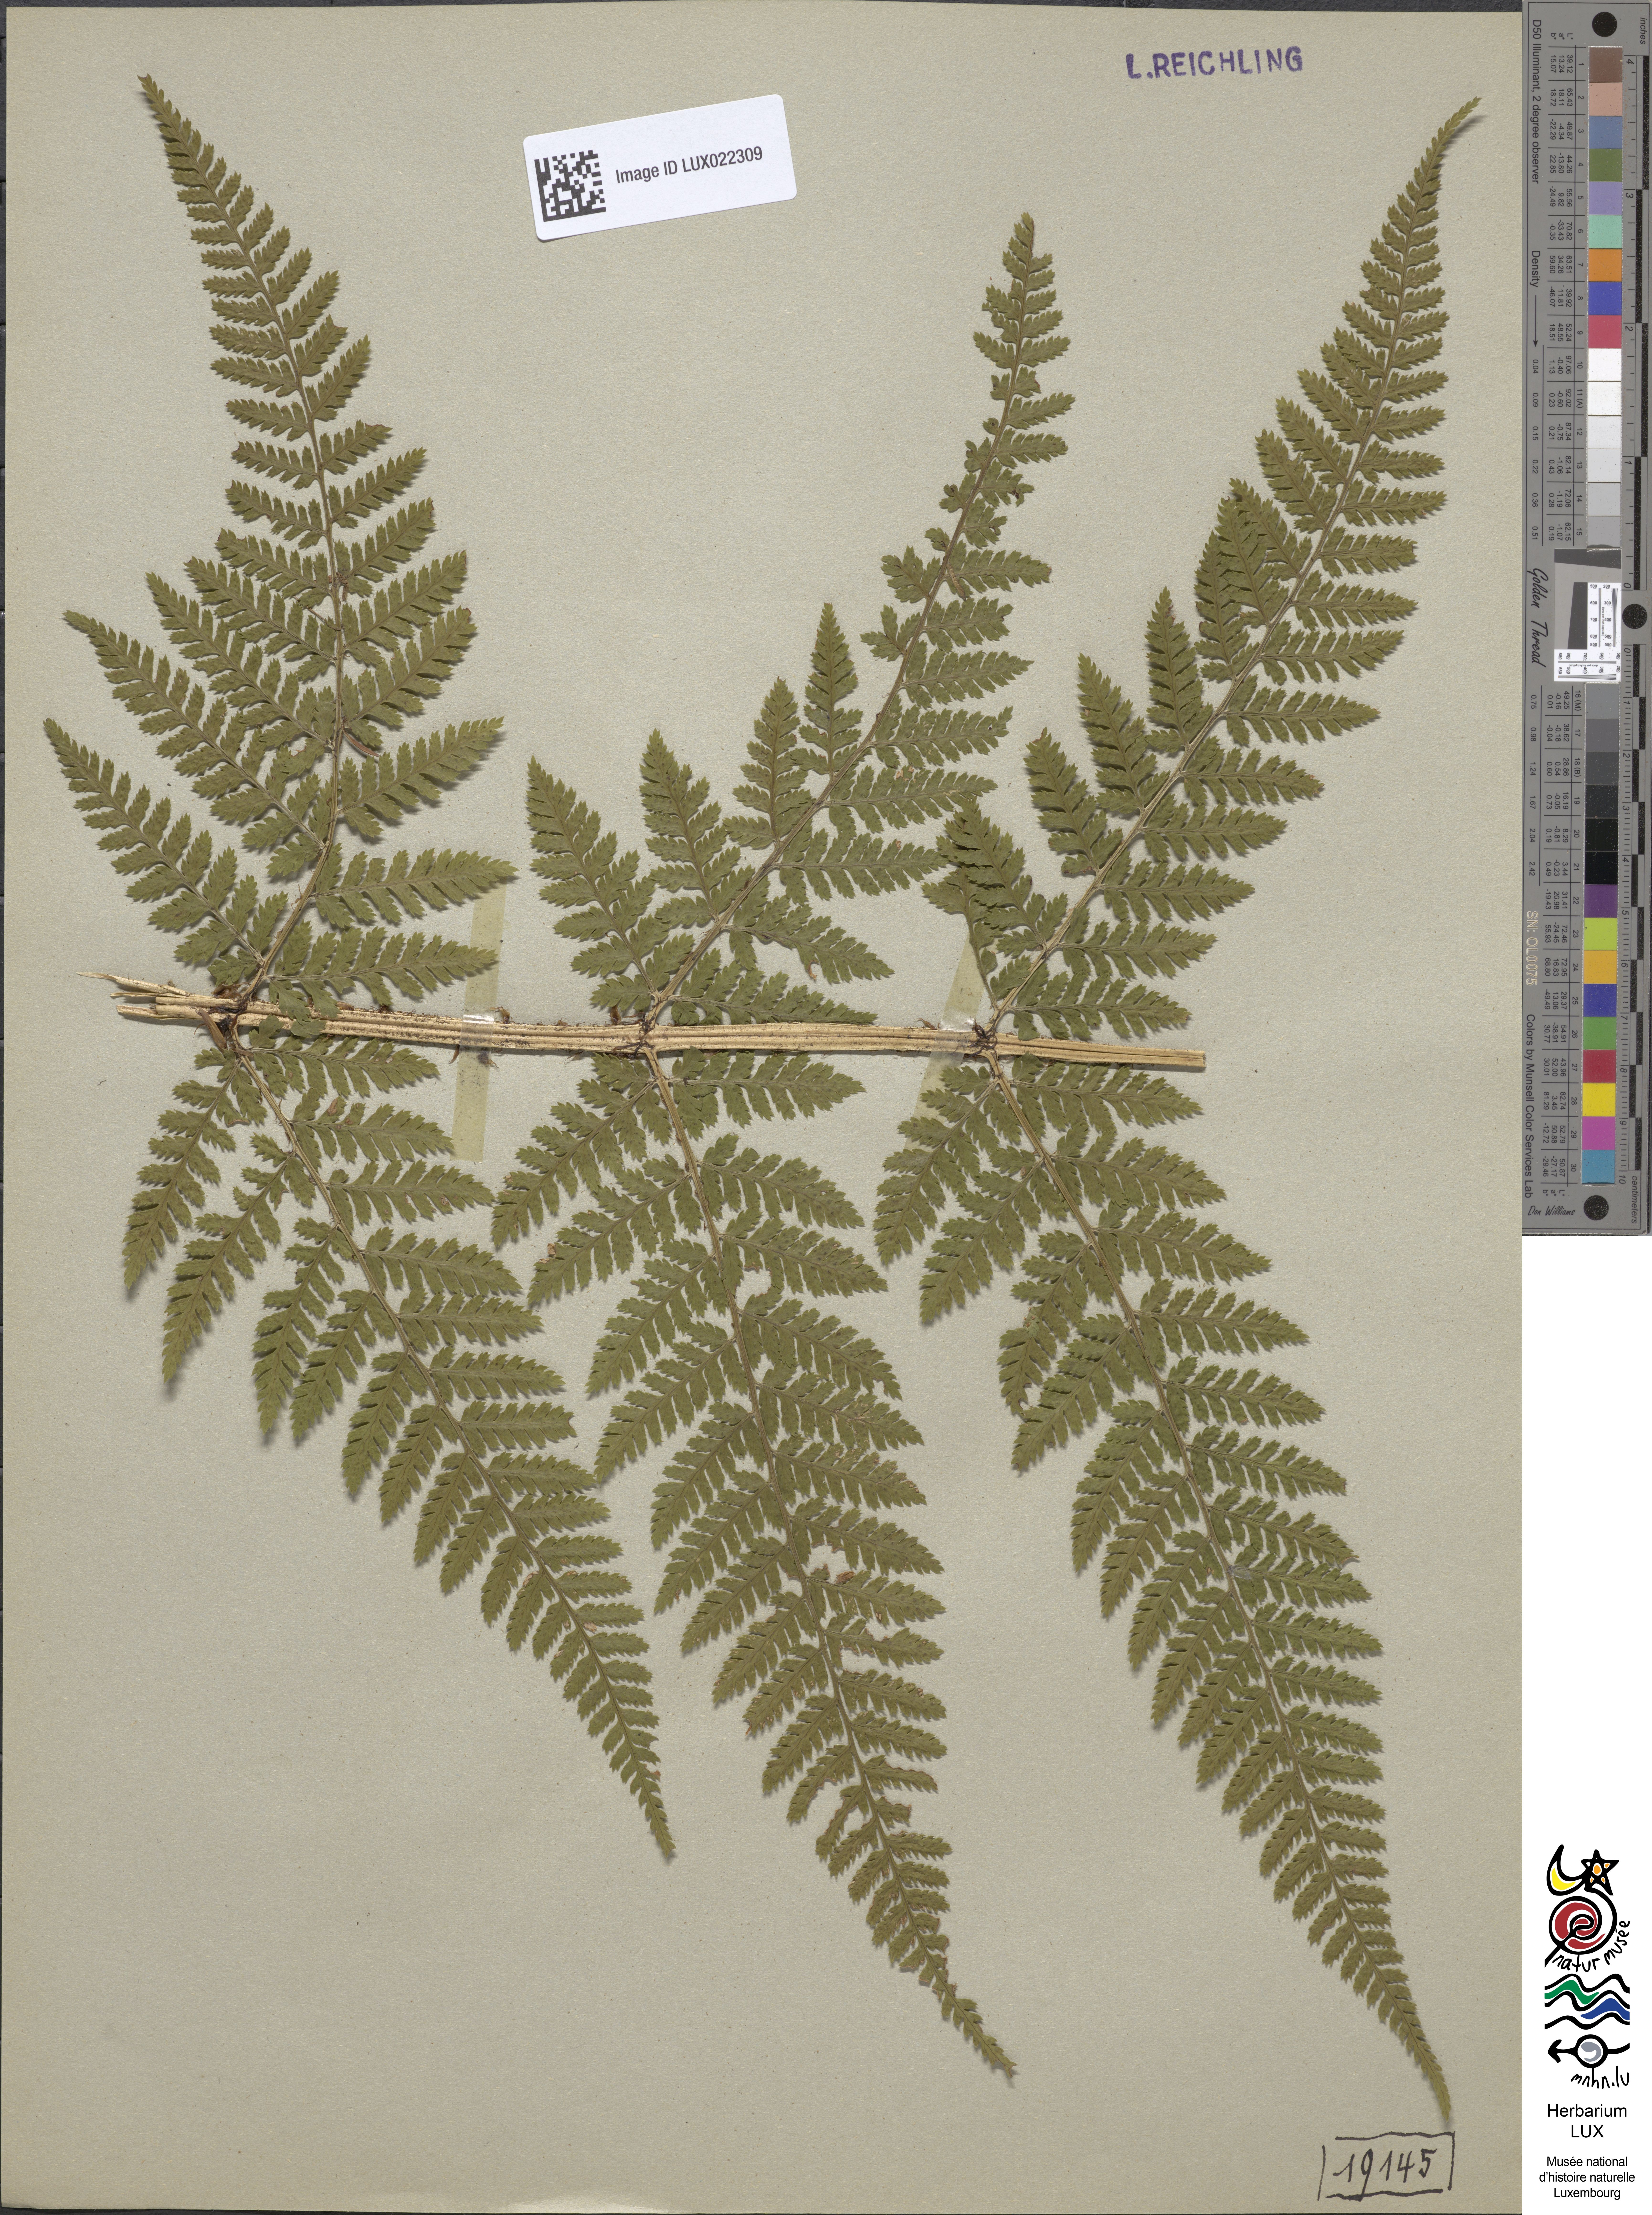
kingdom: Plantae
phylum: Tracheophyta
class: Polypodiopsida
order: Polypodiales
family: Dryopteridaceae
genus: Dryopteris
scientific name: Dryopteris dilatata
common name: Broad buckler-fern
